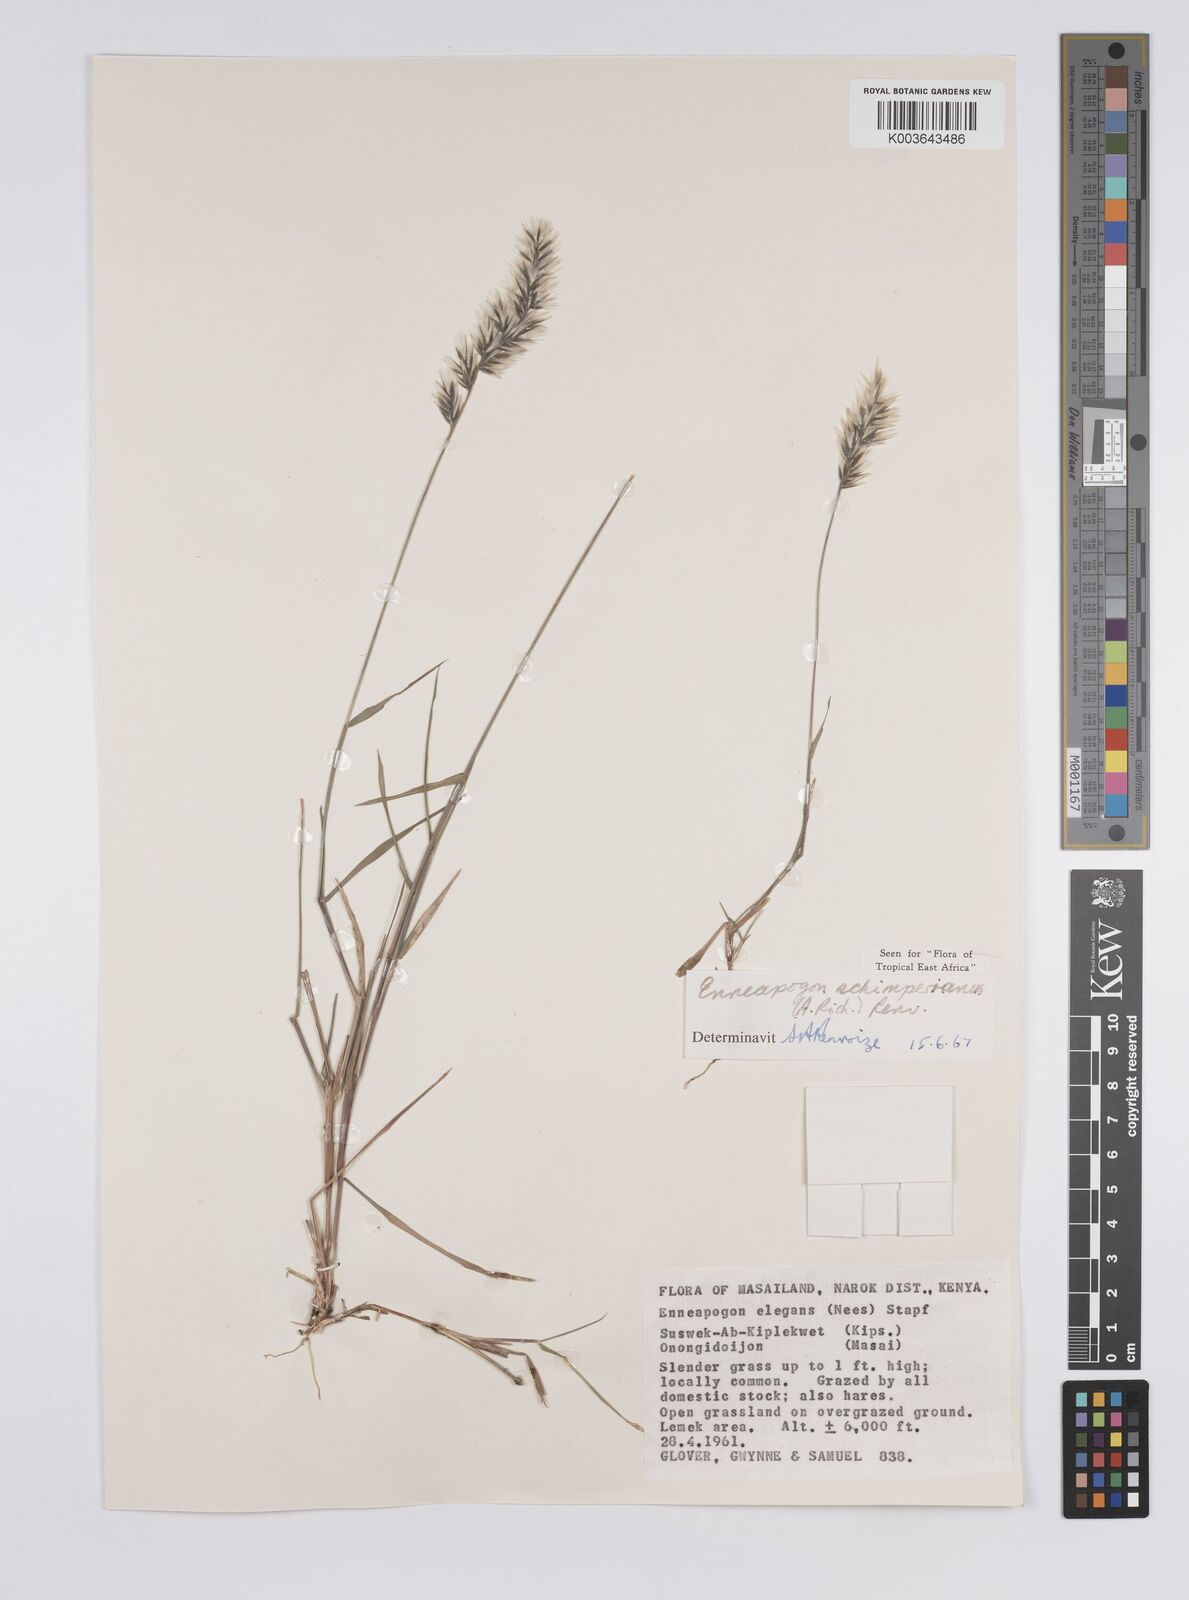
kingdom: Plantae
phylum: Tracheophyta
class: Liliopsida
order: Poales
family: Poaceae
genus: Enneapogon
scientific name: Enneapogon persicus
